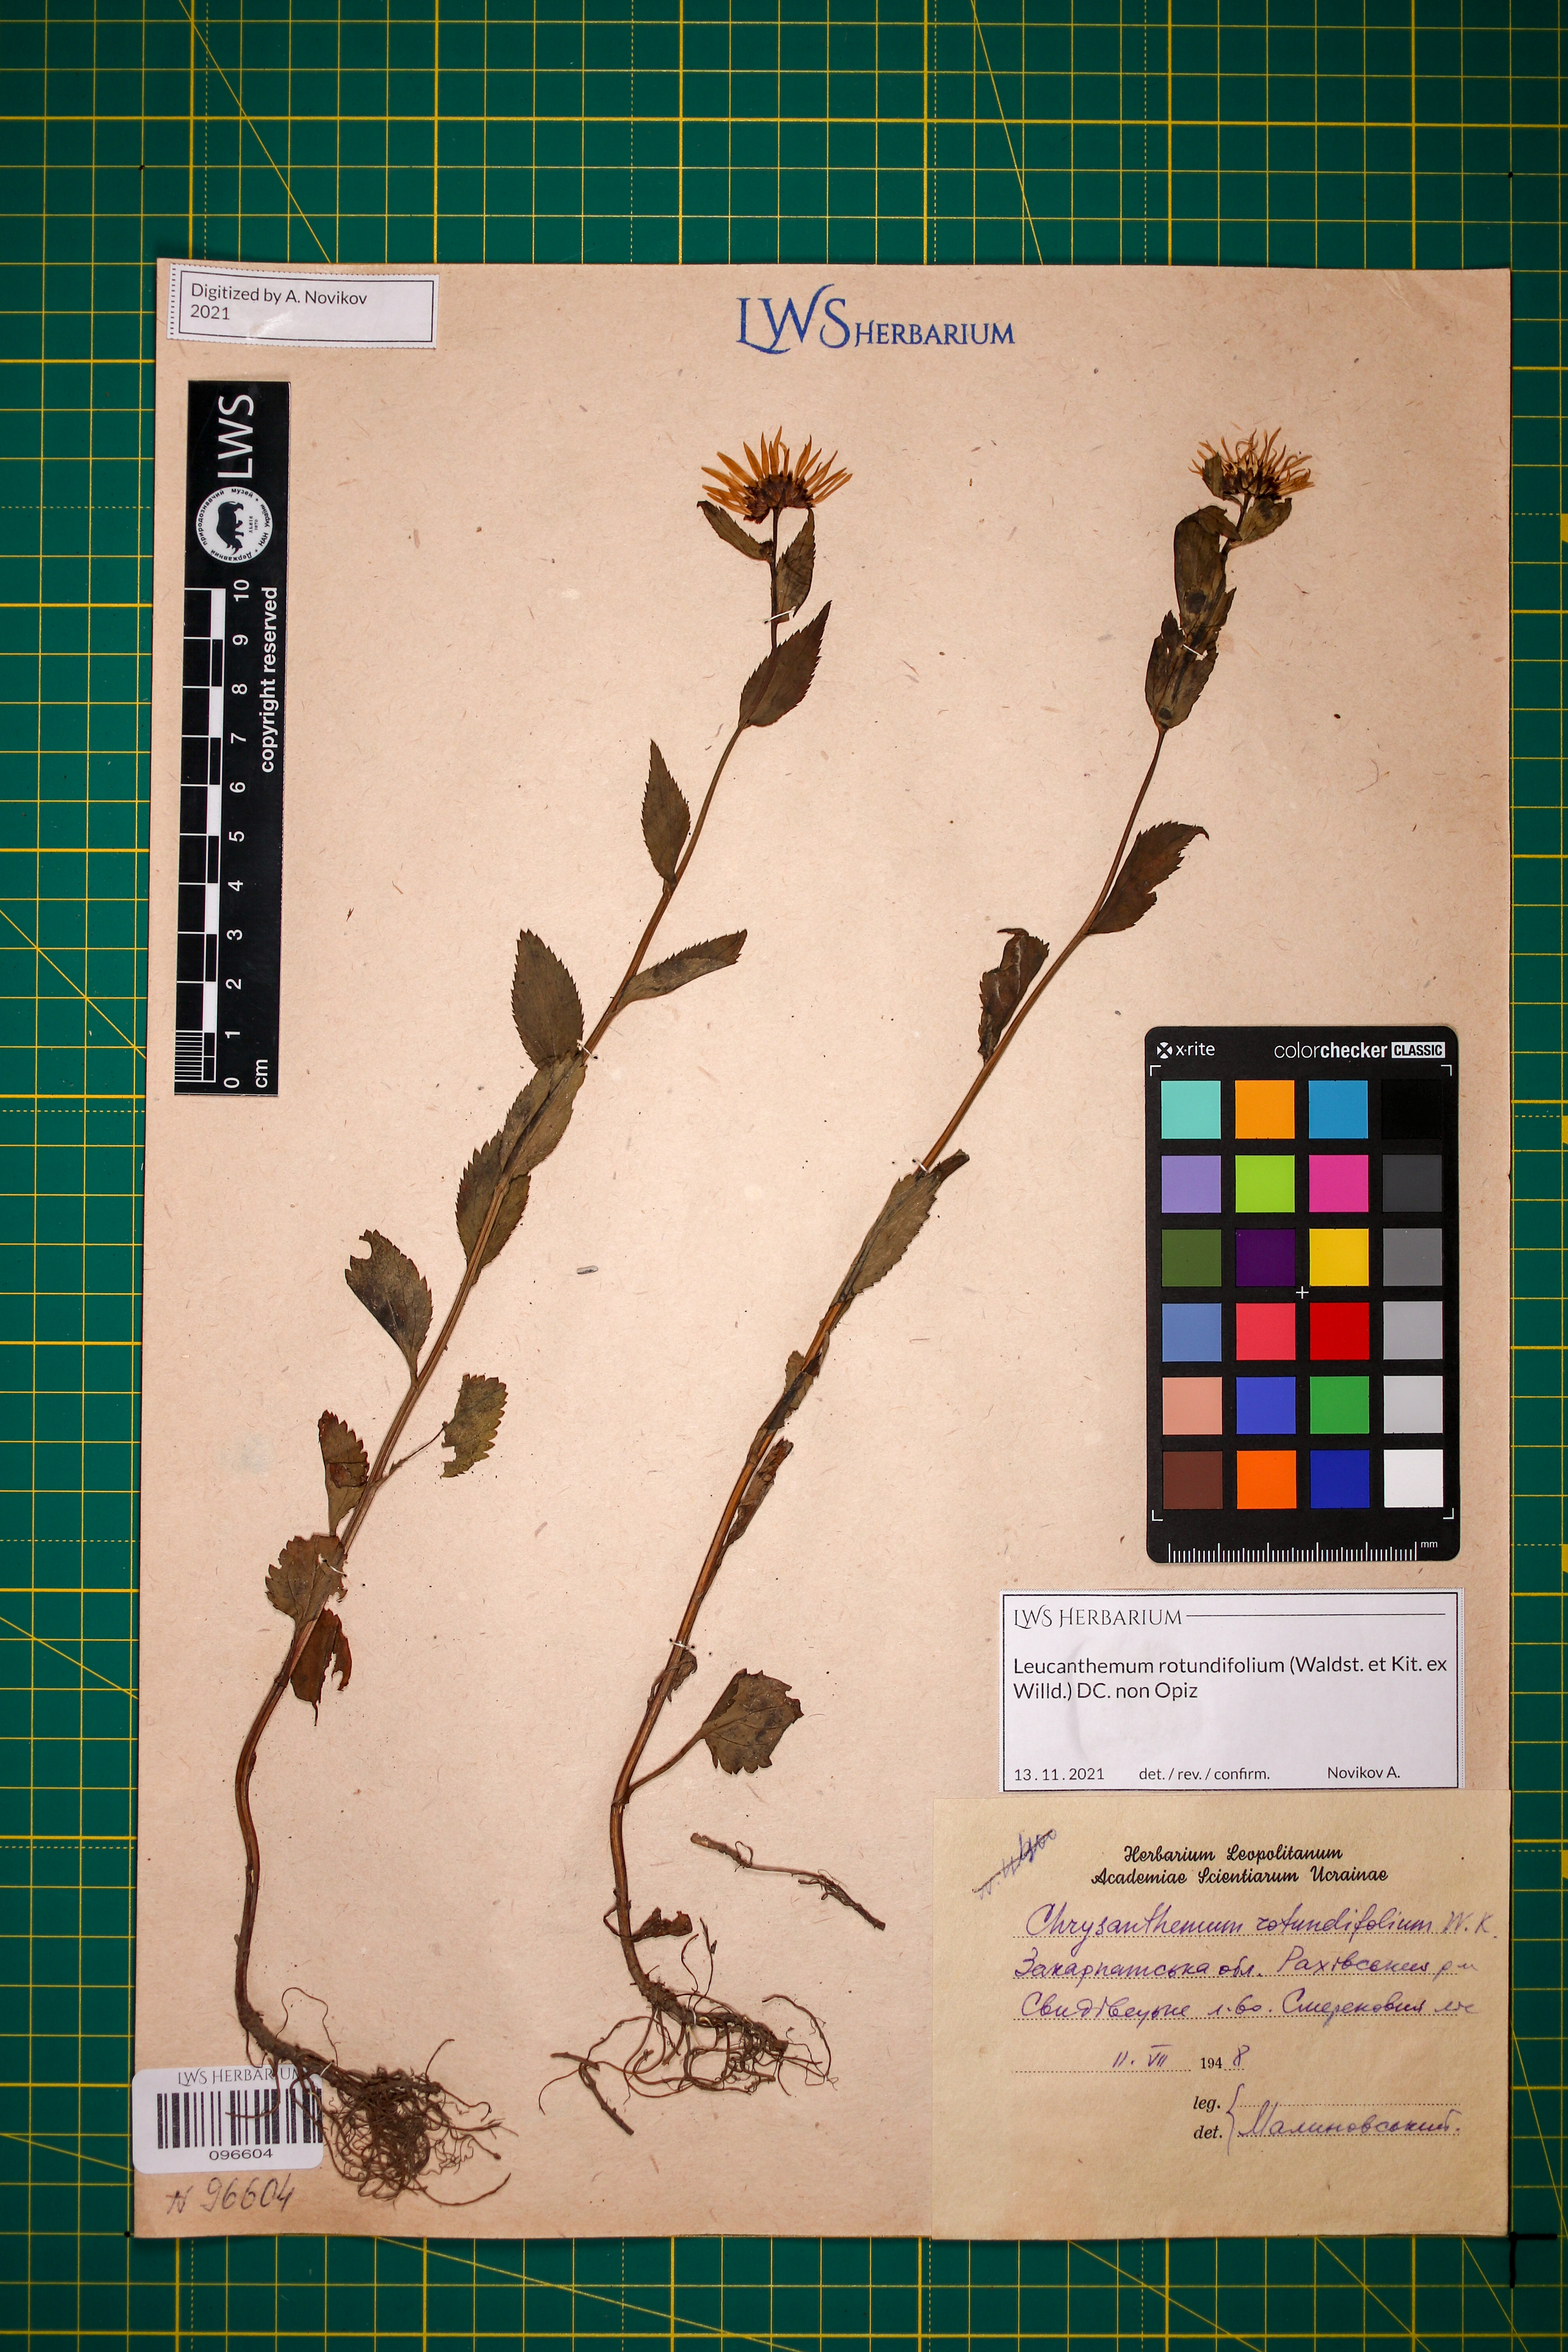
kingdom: Plantae
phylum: Tracheophyta
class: Magnoliopsida
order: Asterales
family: Asteraceae
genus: Leucanthemum
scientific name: Leucanthemum rotundifolium
